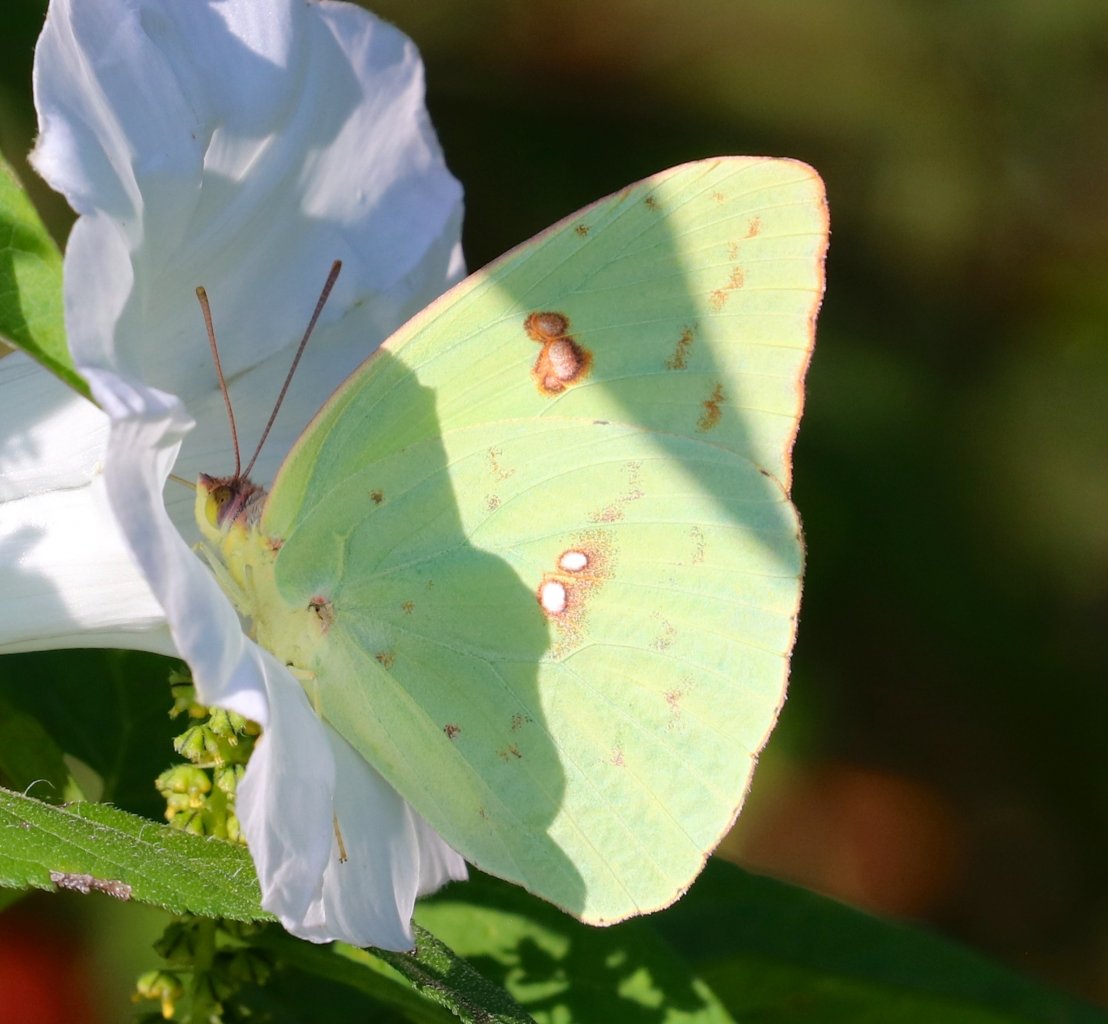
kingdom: Animalia
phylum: Arthropoda
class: Insecta
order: Lepidoptera
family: Pieridae
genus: Phoebis
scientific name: Phoebis sennae
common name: Cloudless Sulphur
